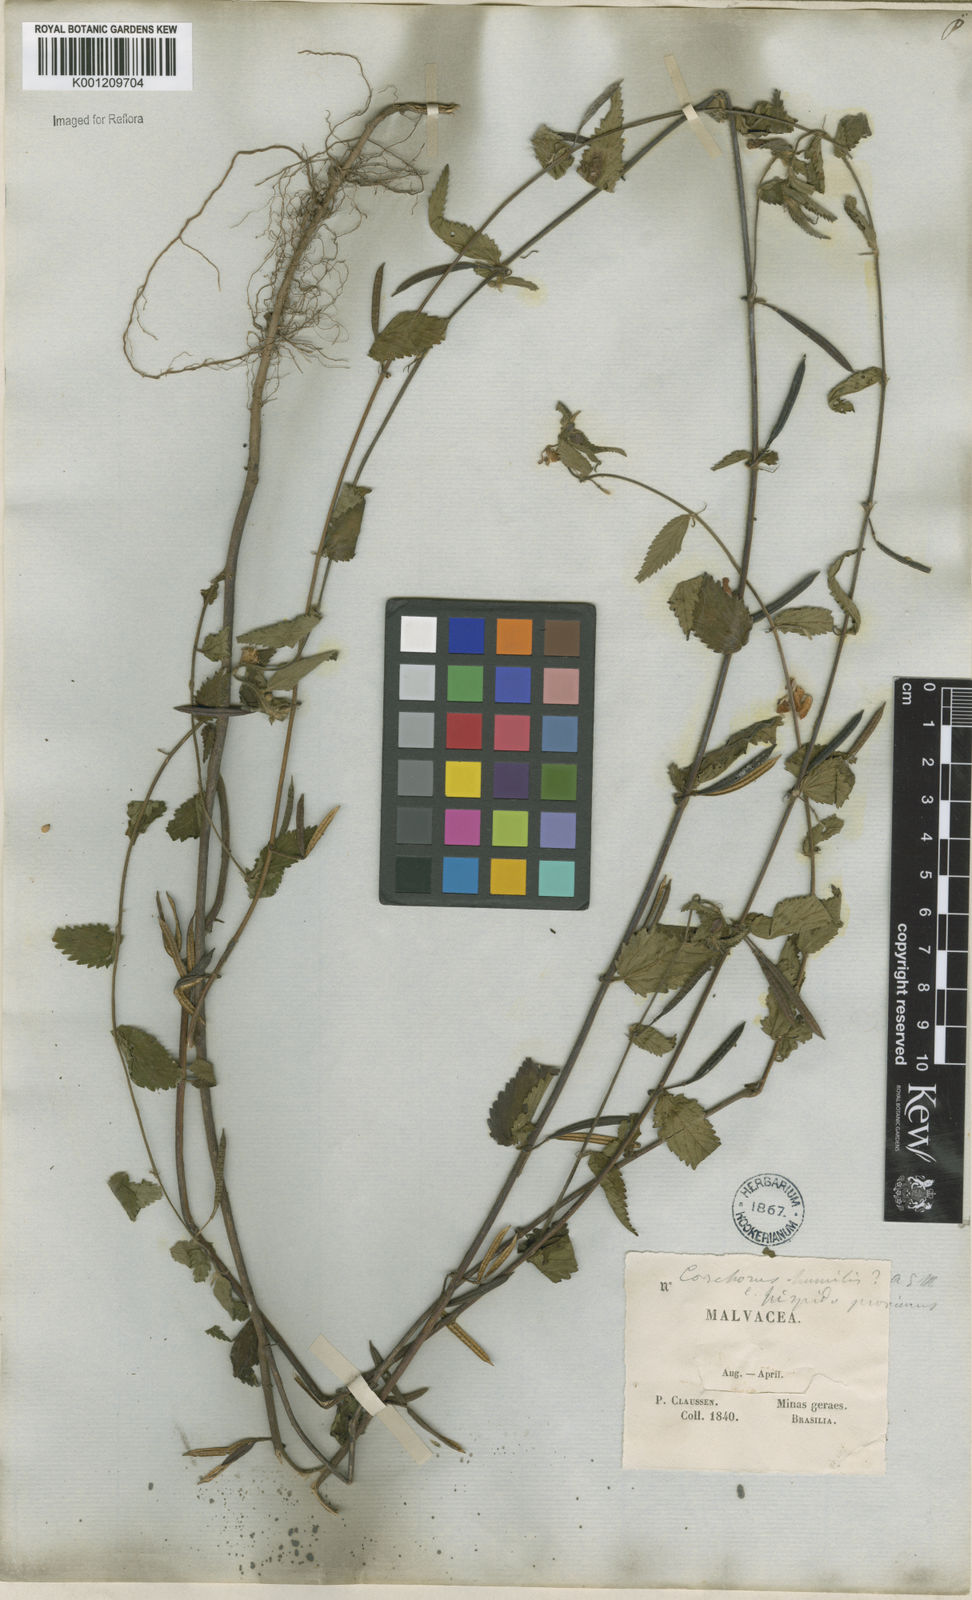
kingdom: Plantae
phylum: Tracheophyta
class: Magnoliopsida
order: Malvales
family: Malvaceae
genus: Corchorus
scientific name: Corchorus
